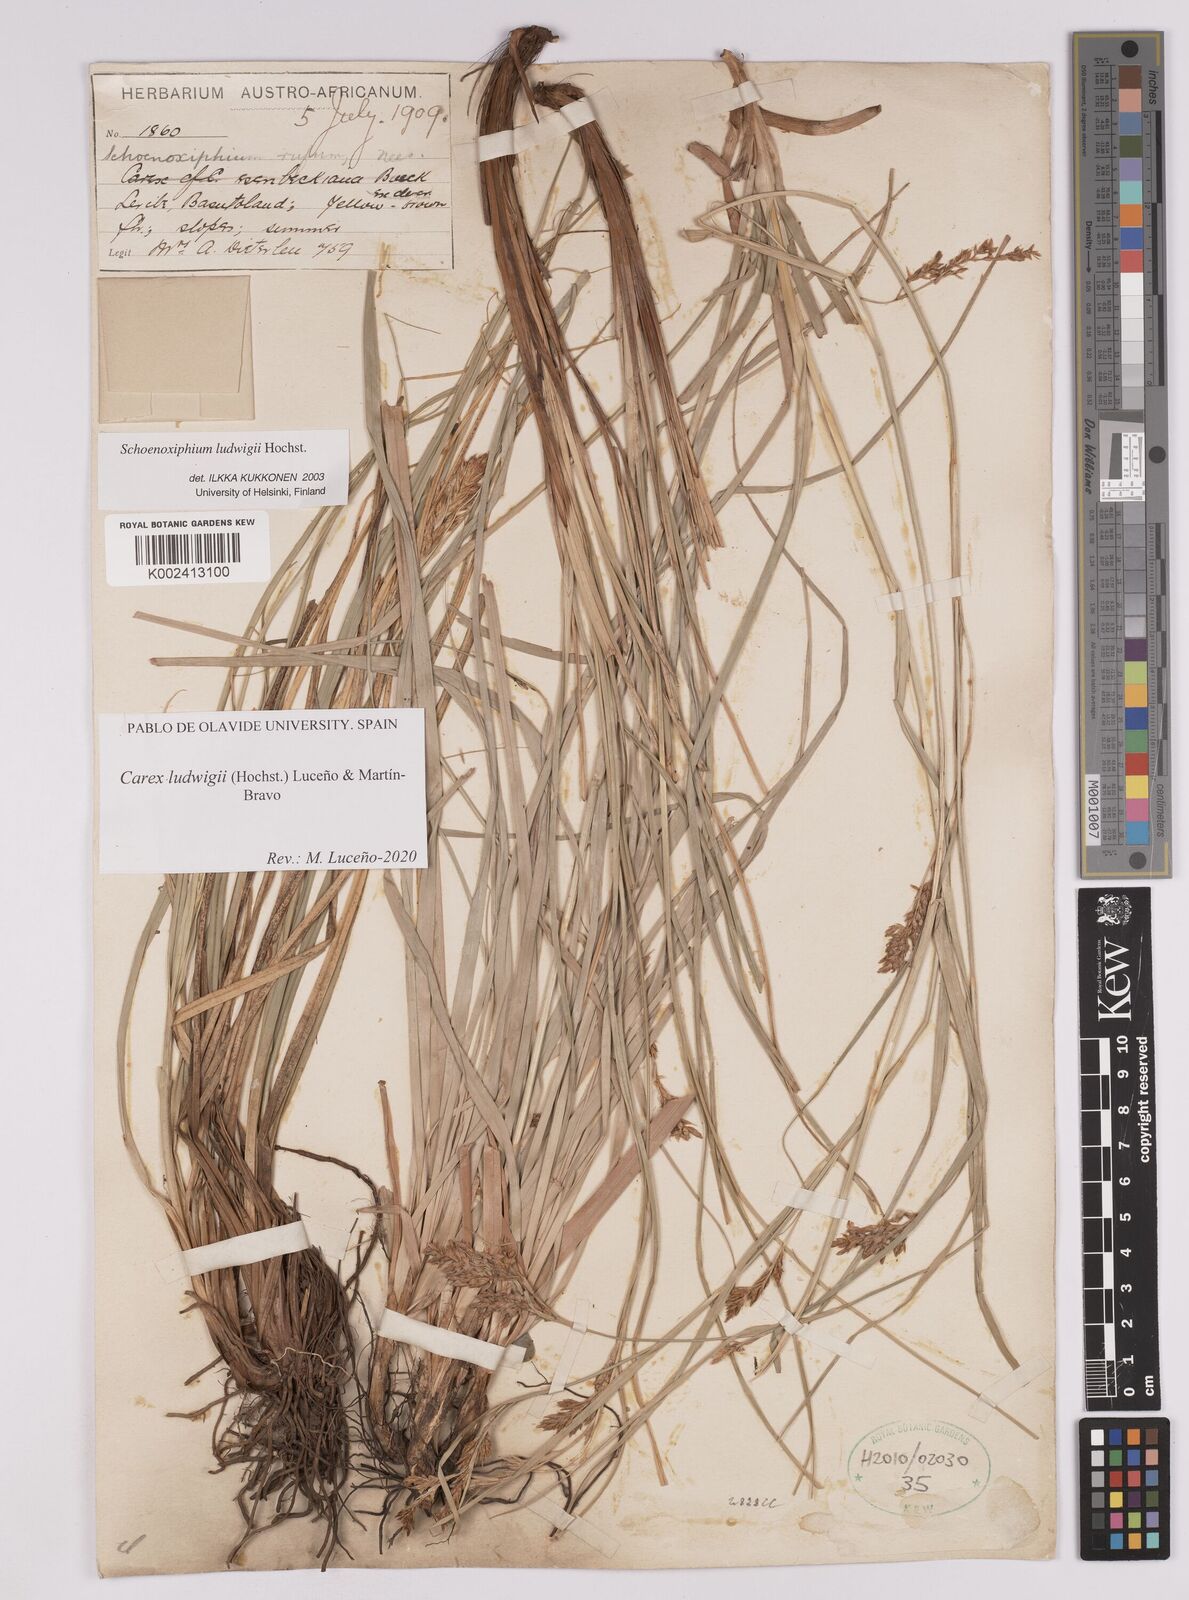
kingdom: Plantae
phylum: Tracheophyta
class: Liliopsida
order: Poales
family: Cyperaceae
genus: Carex
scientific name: Carex ludwigii
